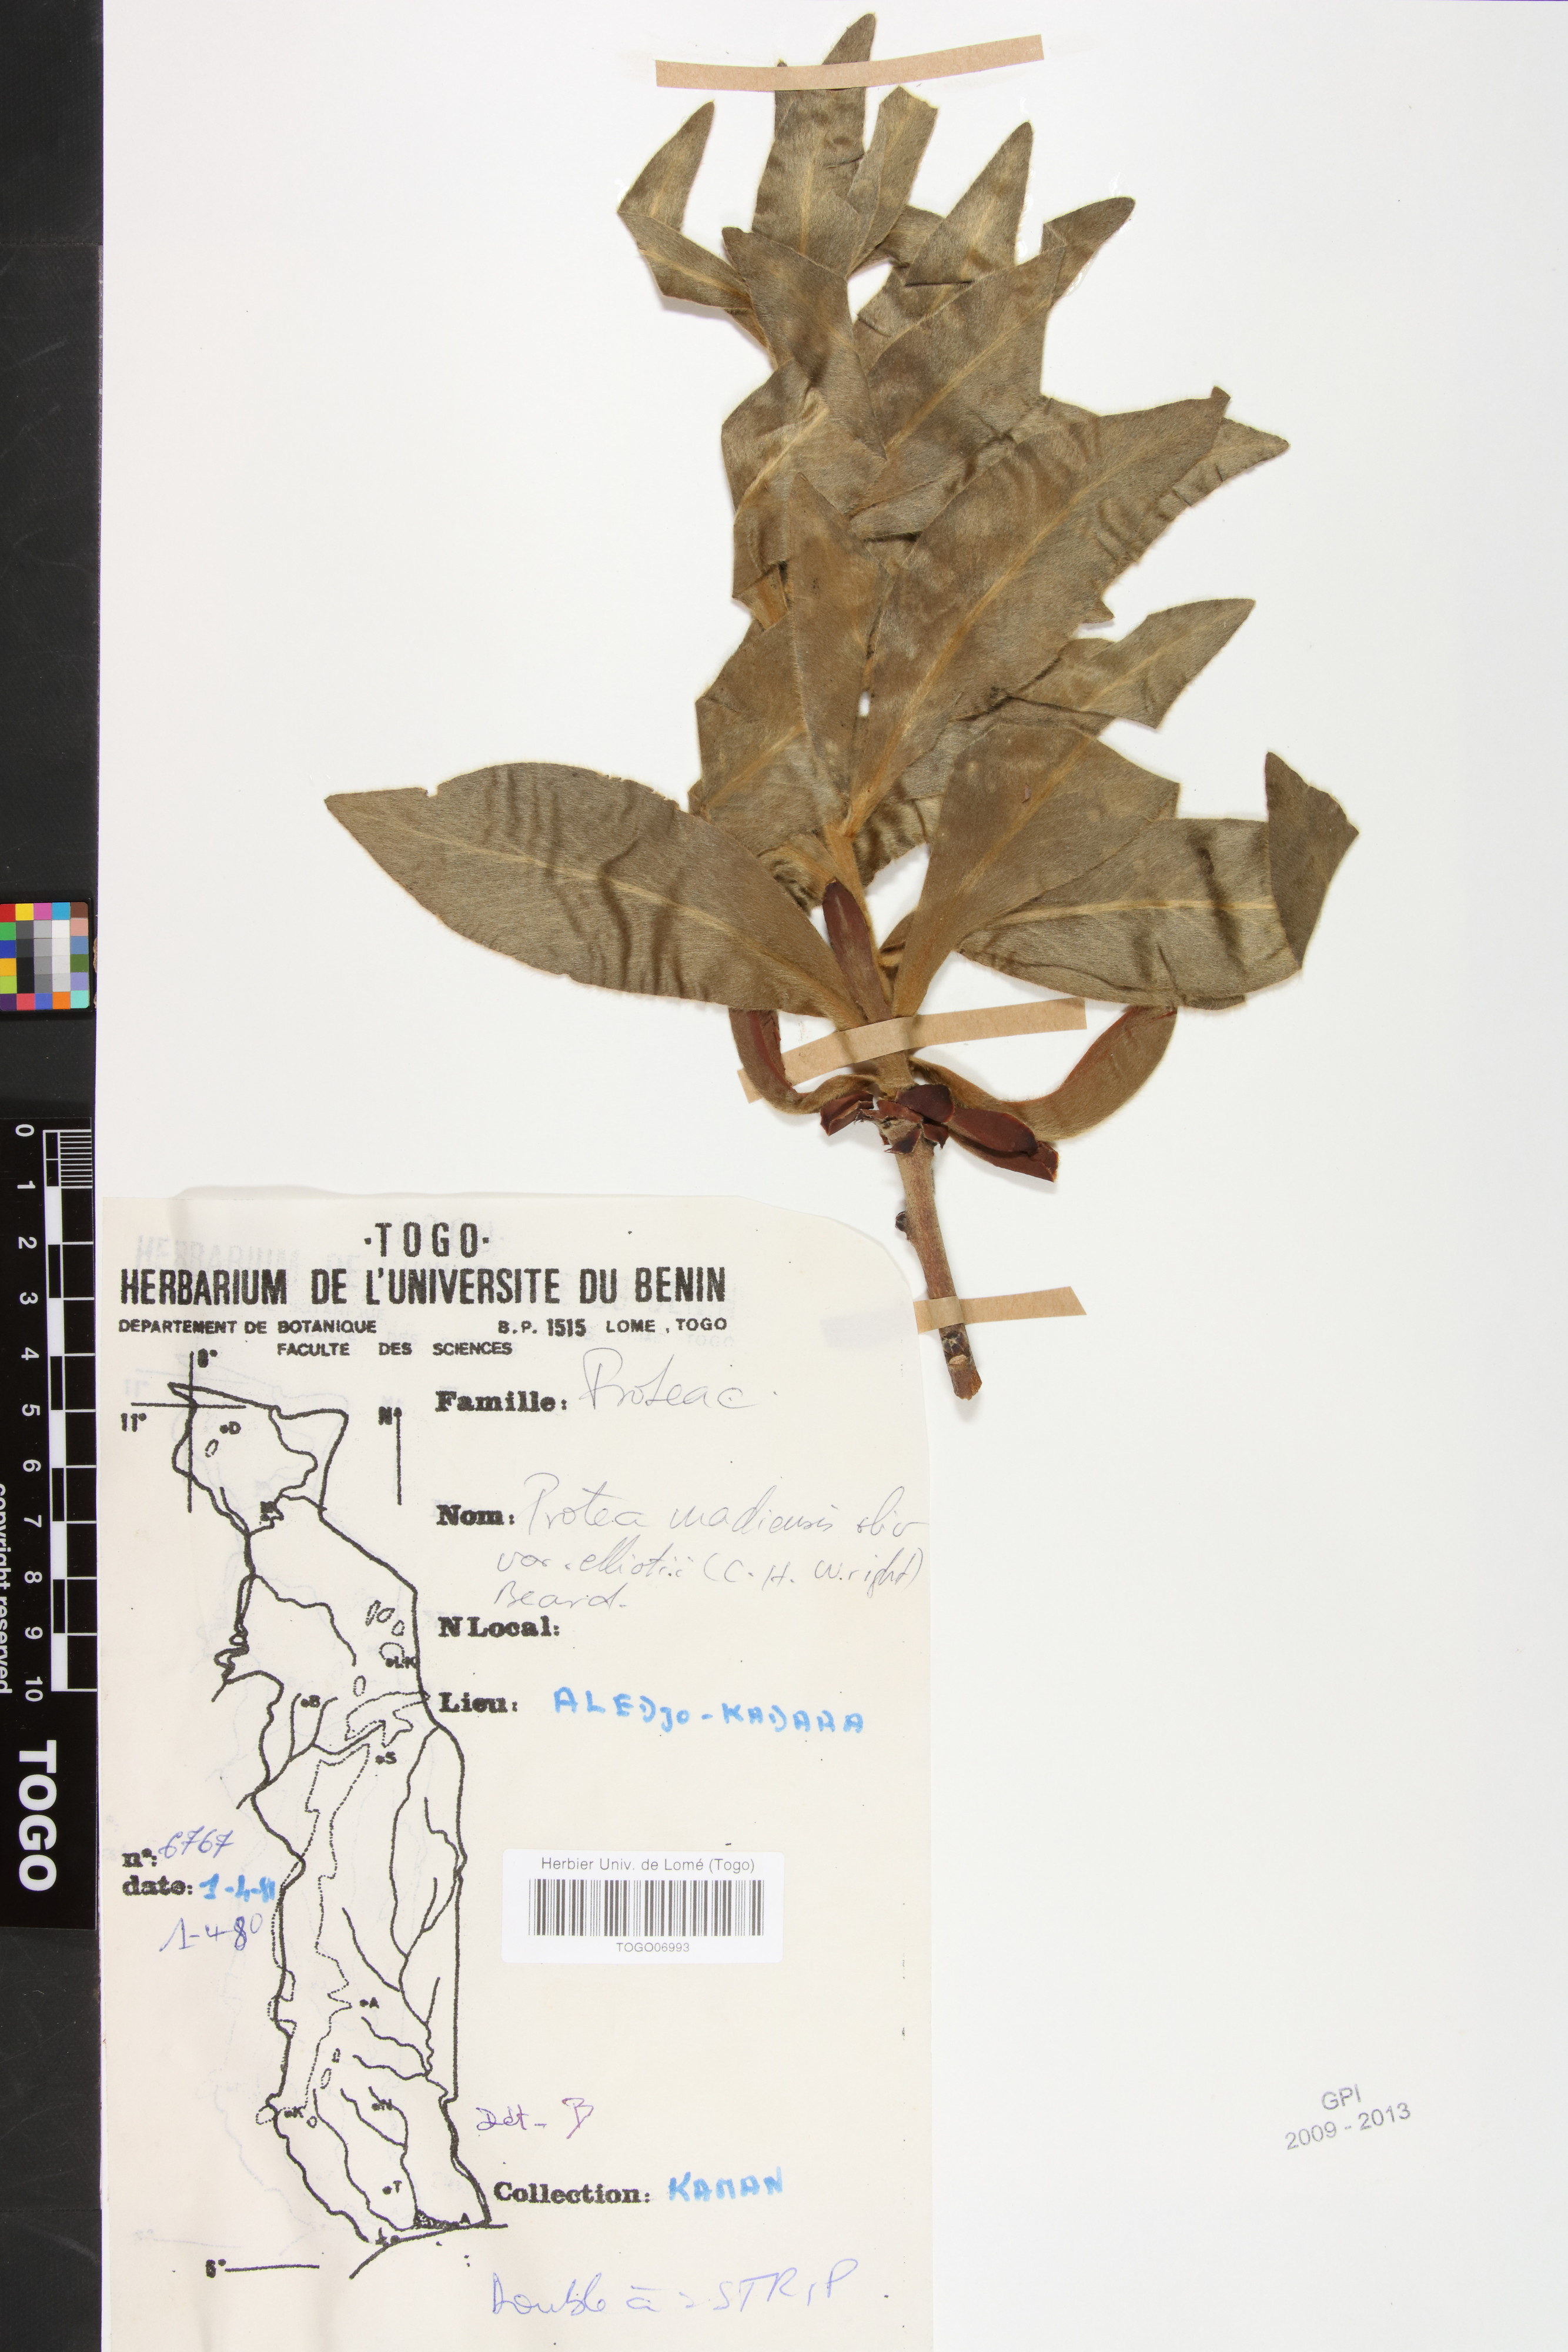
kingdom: Plantae
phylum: Tracheophyta
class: Magnoliopsida
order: Proteales
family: Proteaceae
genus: Protea
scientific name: Protea madiensis
